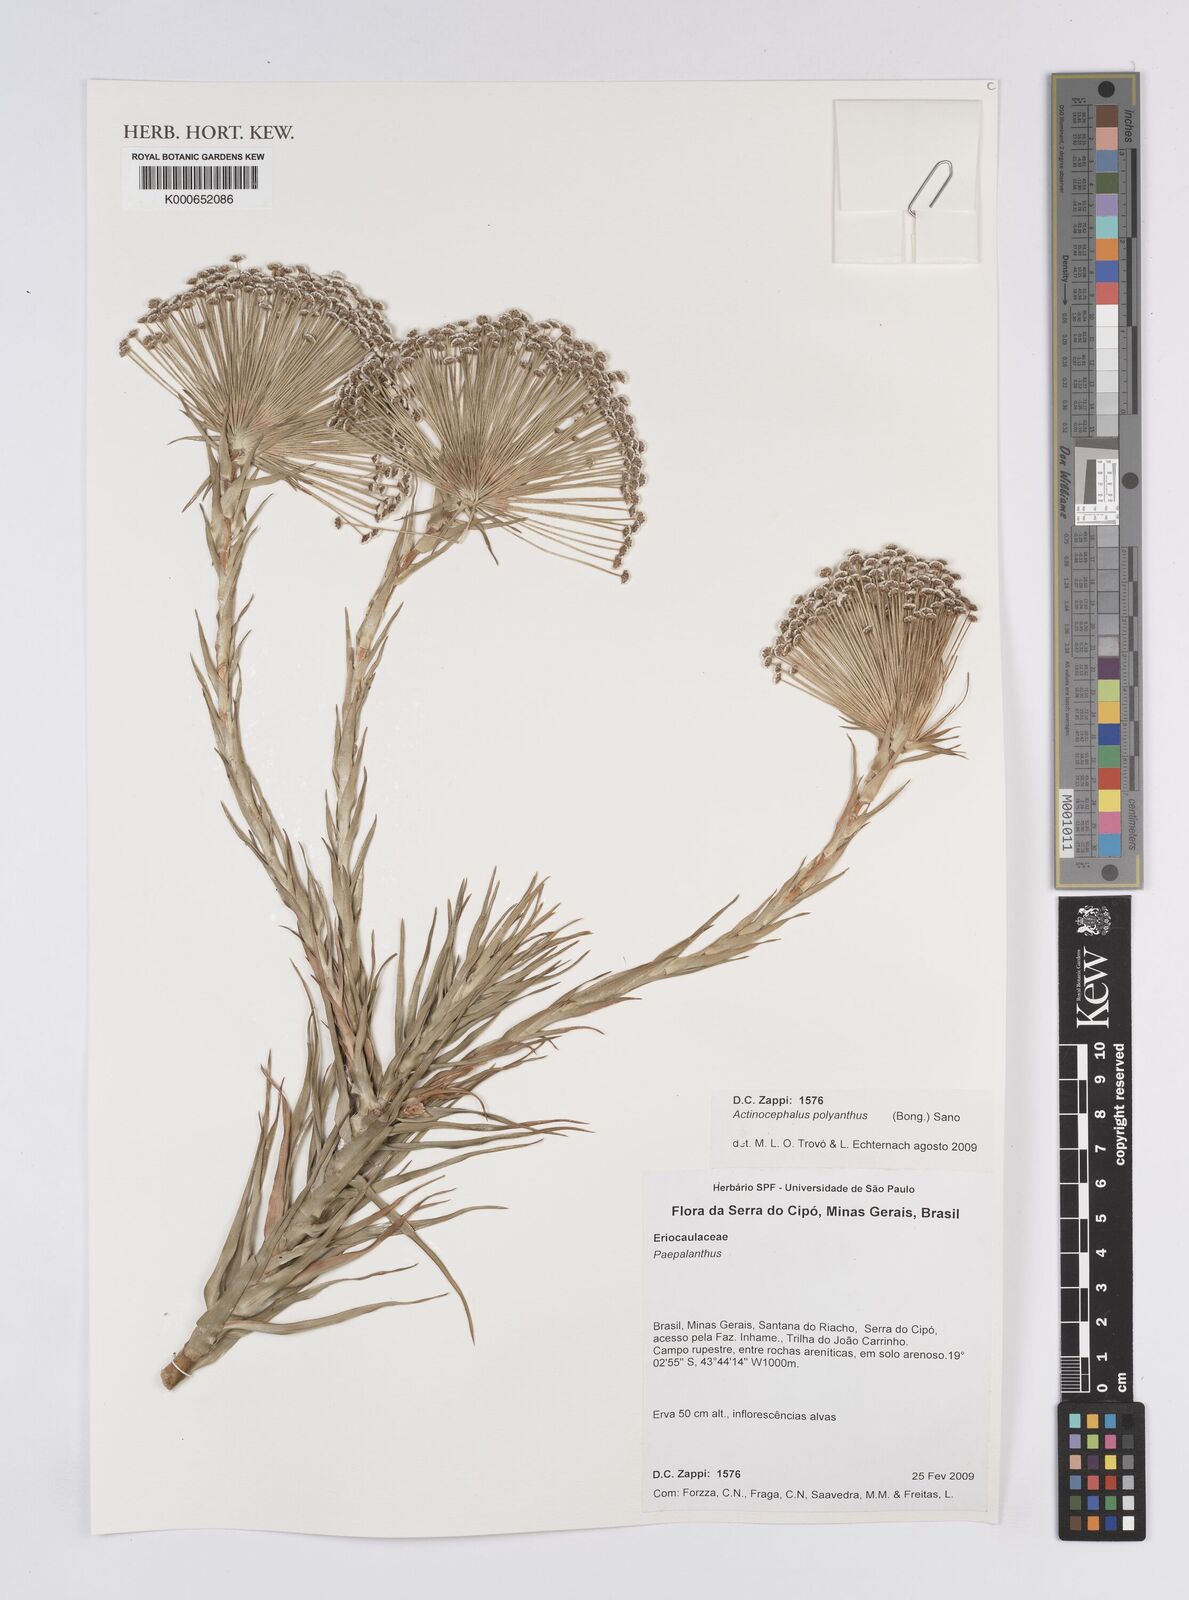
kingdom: Plantae
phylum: Tracheophyta
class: Liliopsida
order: Poales
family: Eriocaulaceae
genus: Paepalanthus
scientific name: Paepalanthus polyanthus
